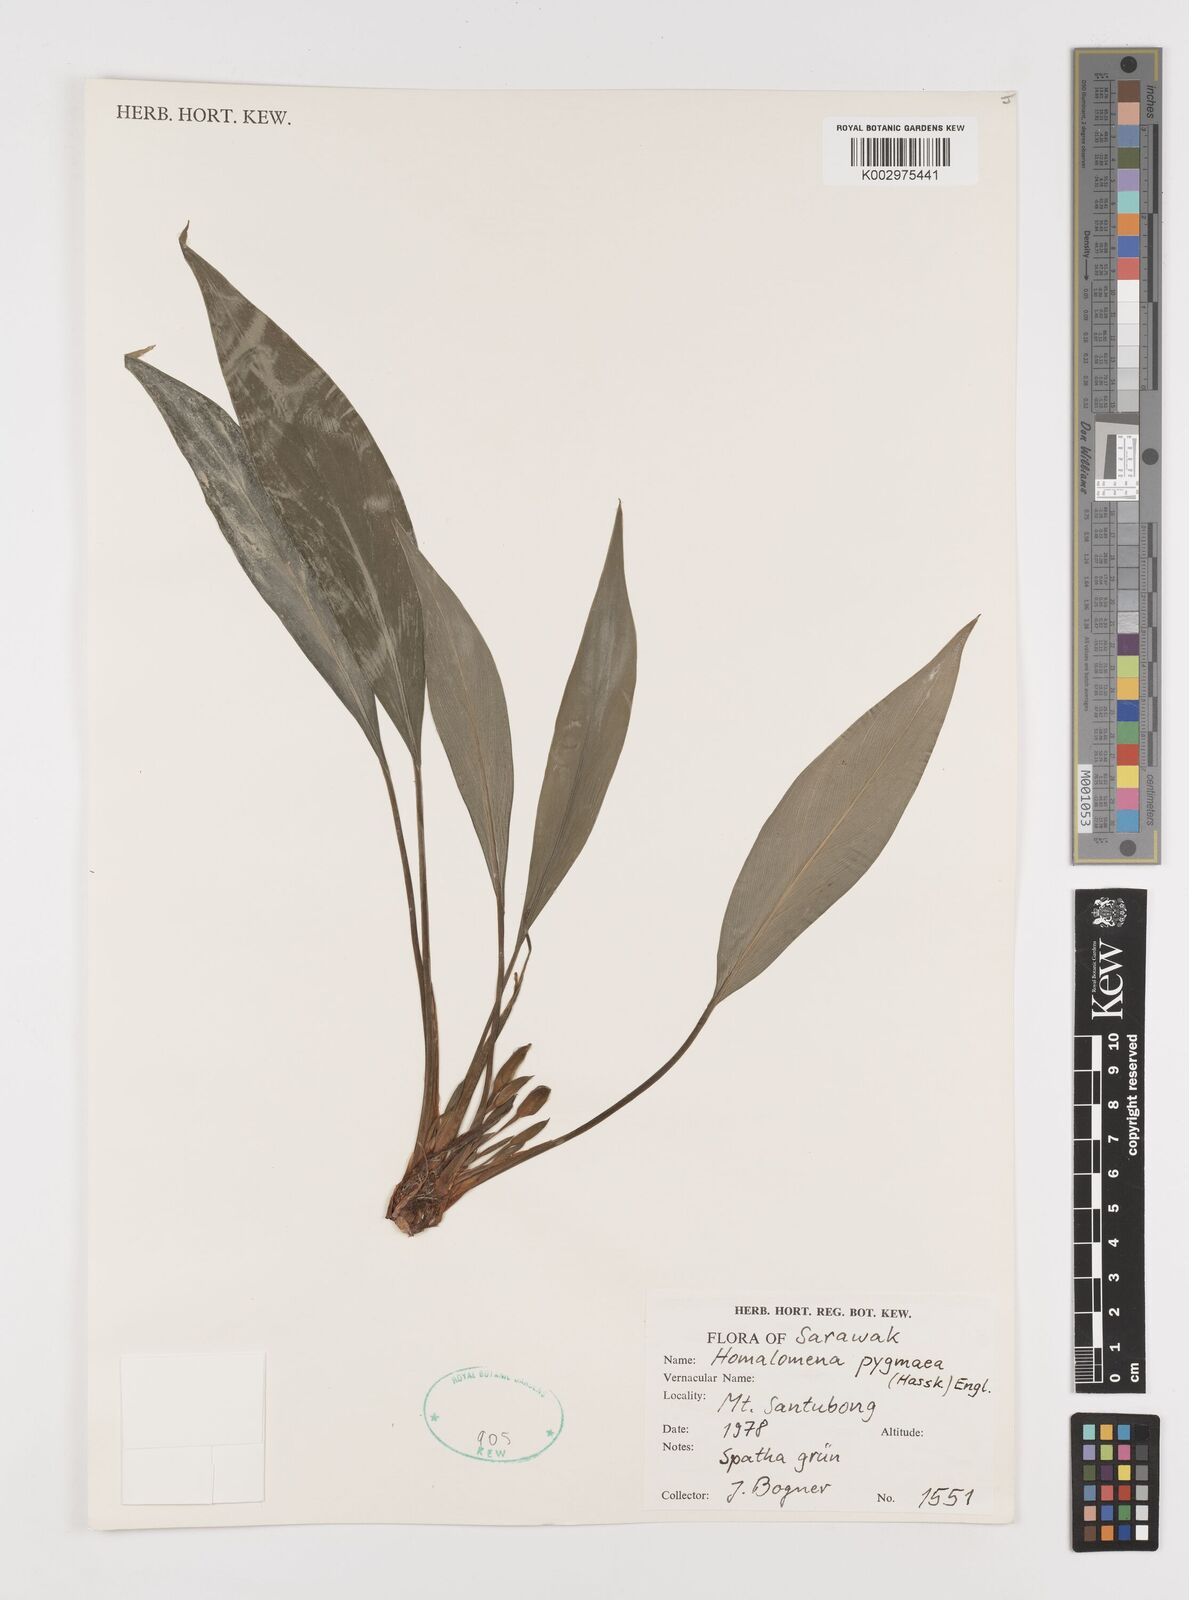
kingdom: Plantae
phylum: Tracheophyta
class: Liliopsida
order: Alismatales
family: Araceae
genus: Homalomena
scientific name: Homalomena humilis
